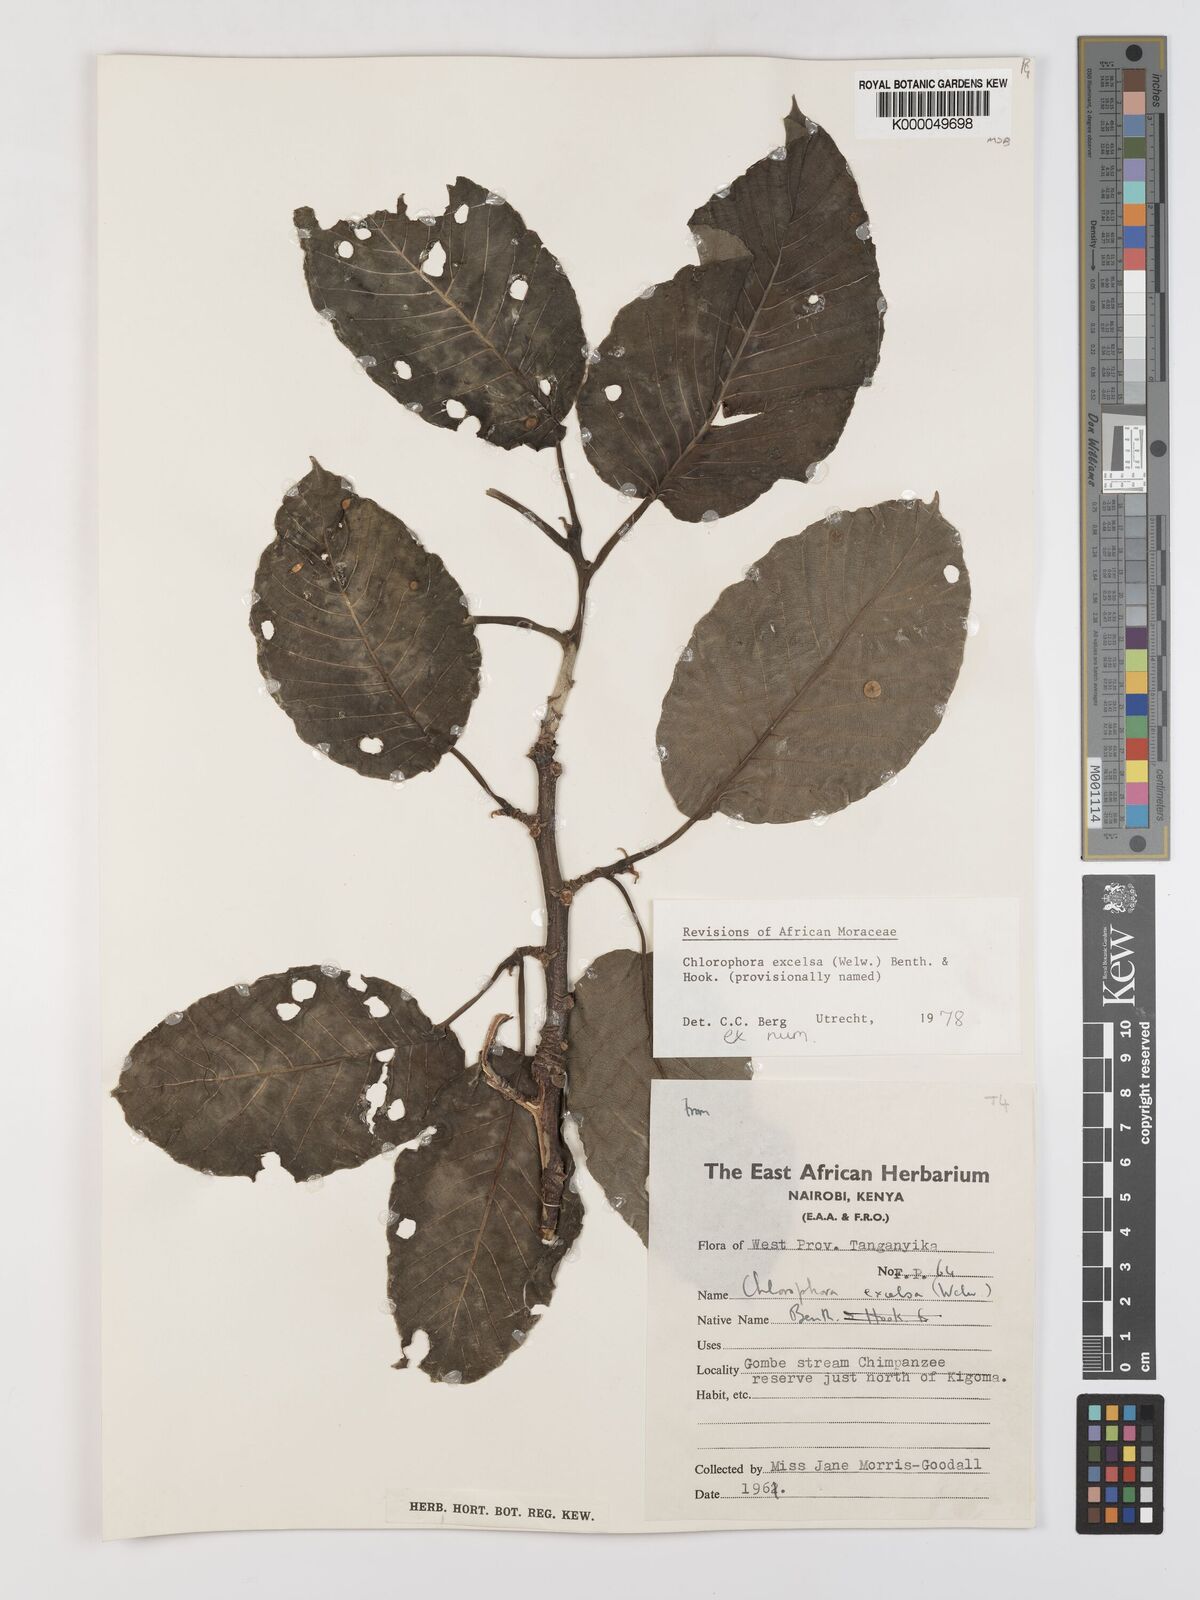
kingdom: Plantae
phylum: Tracheophyta
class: Magnoliopsida
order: Rosales
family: Moraceae
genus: Milicia
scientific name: Milicia excelsa
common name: African teak
